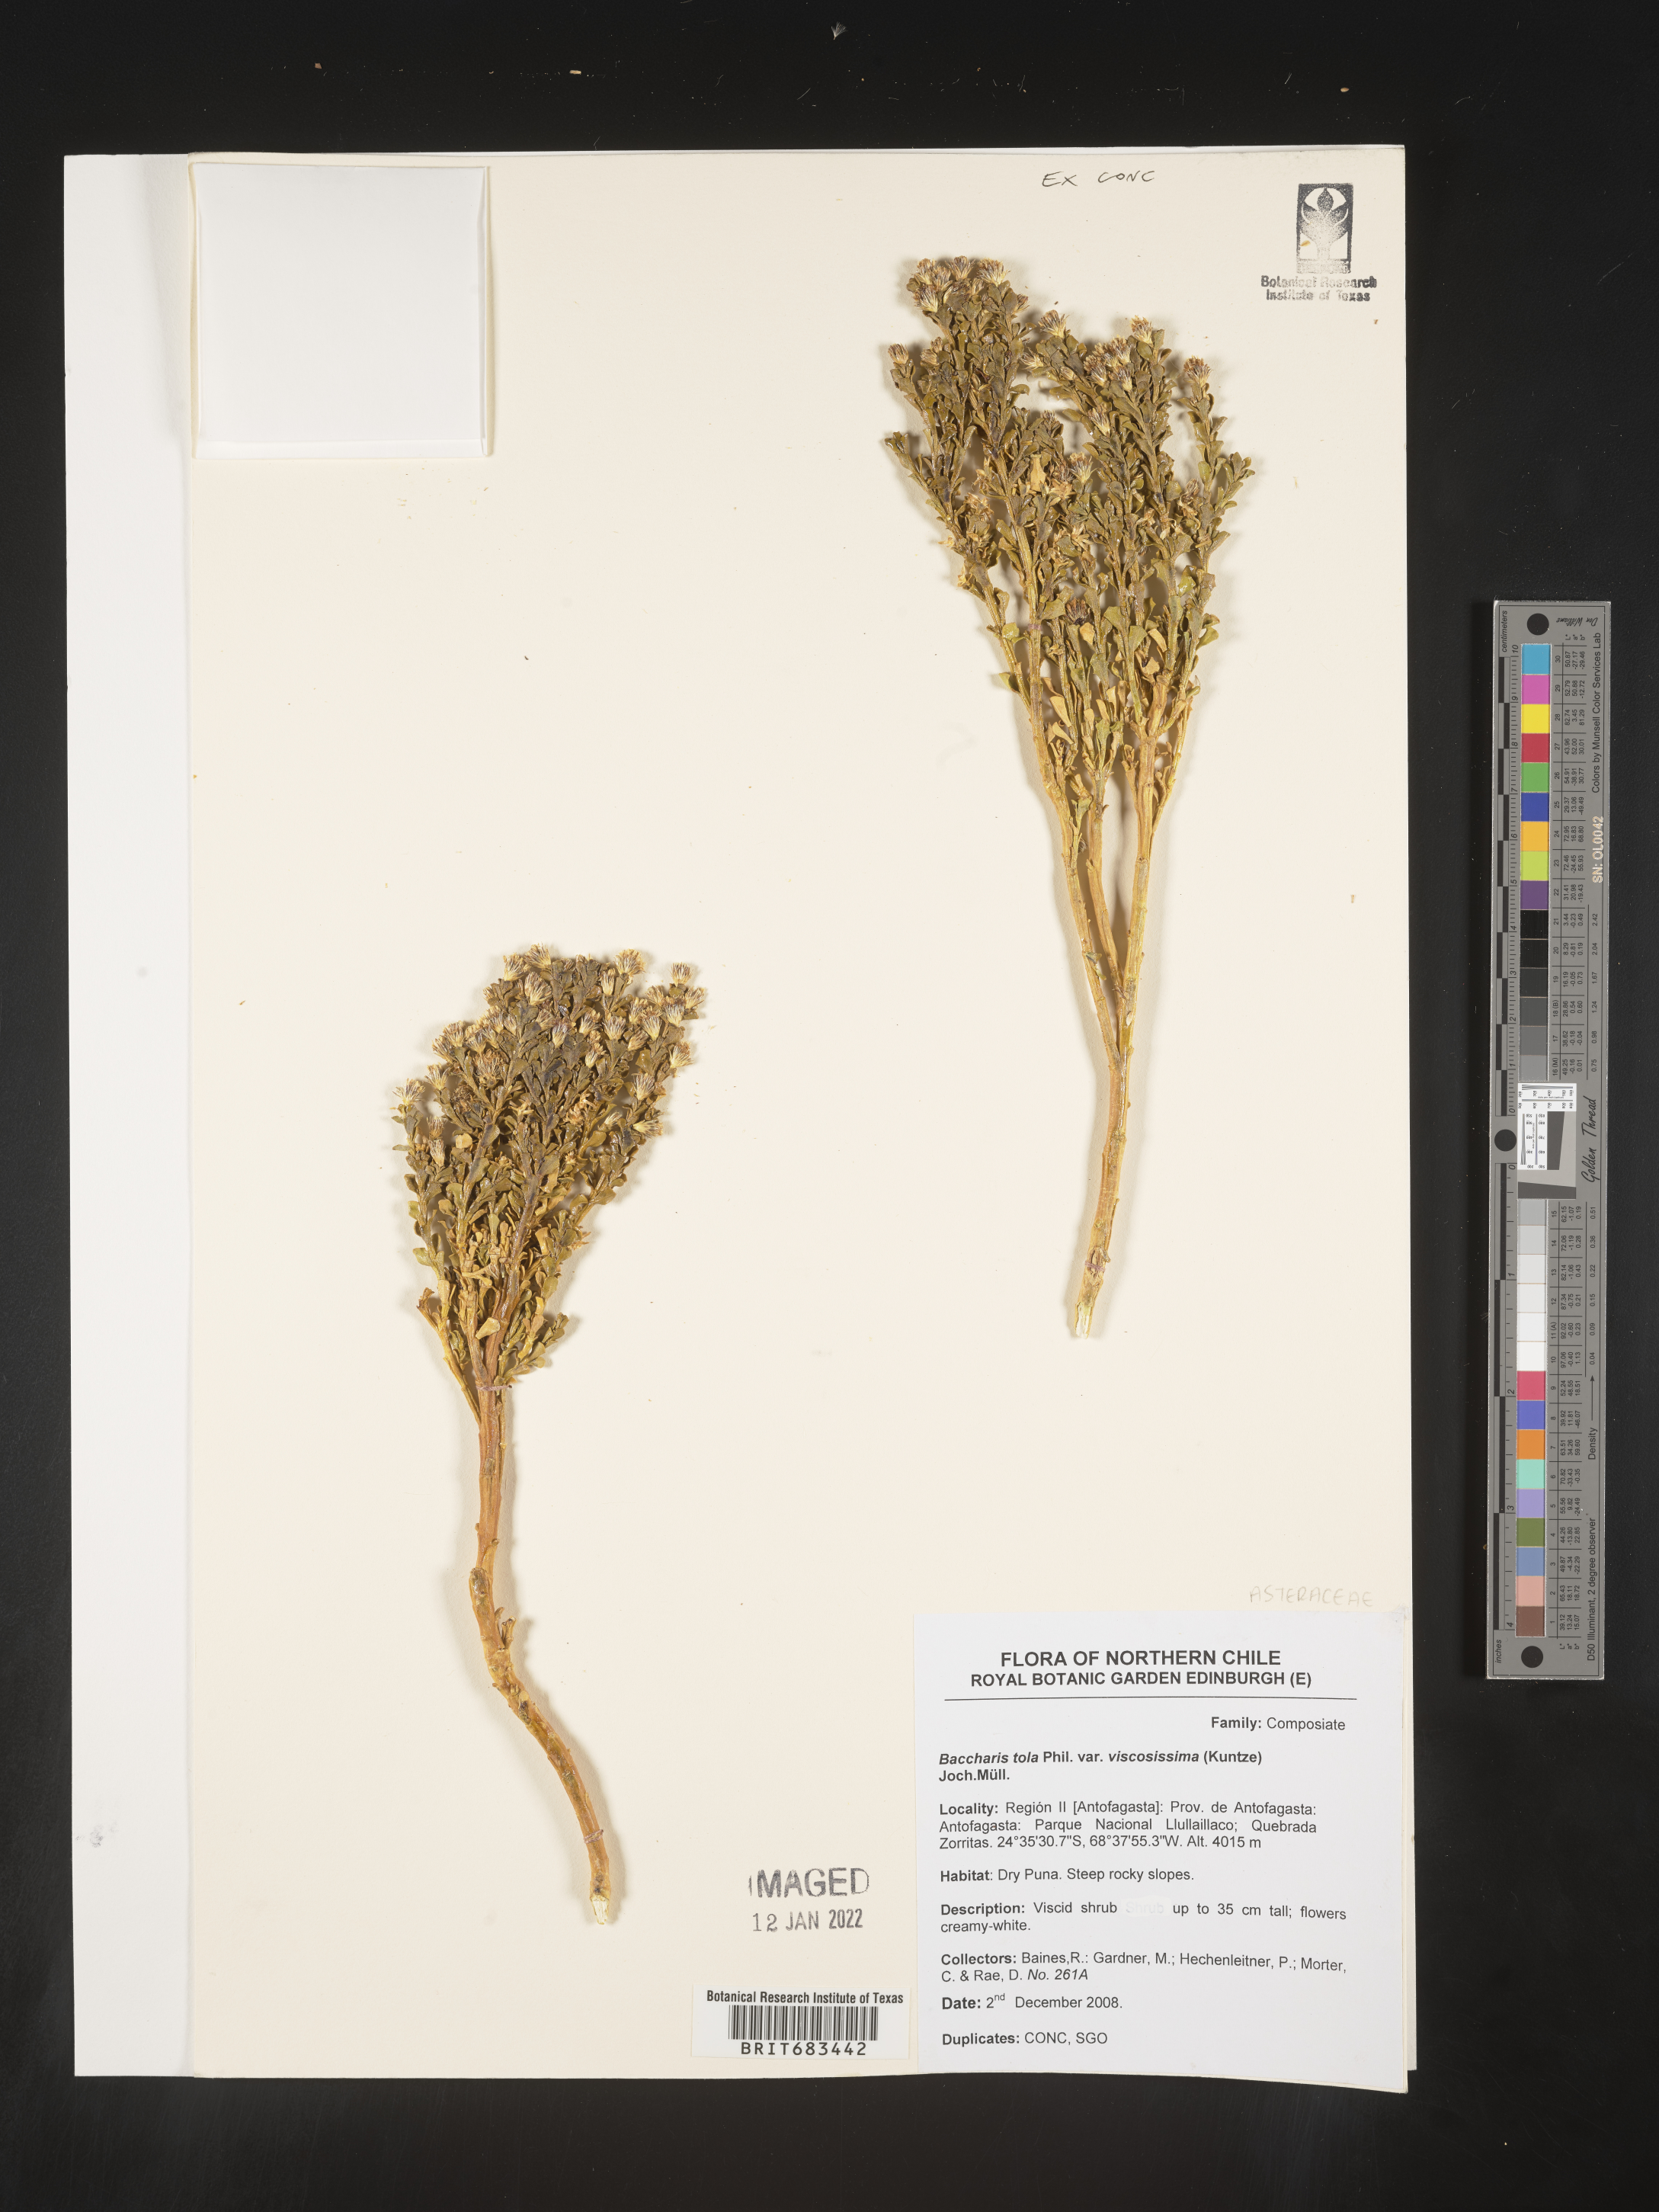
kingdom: Plantae
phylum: Tracheophyta
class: Magnoliopsida
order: Asterales
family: Asteraceae
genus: Baccharis
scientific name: Baccharis
